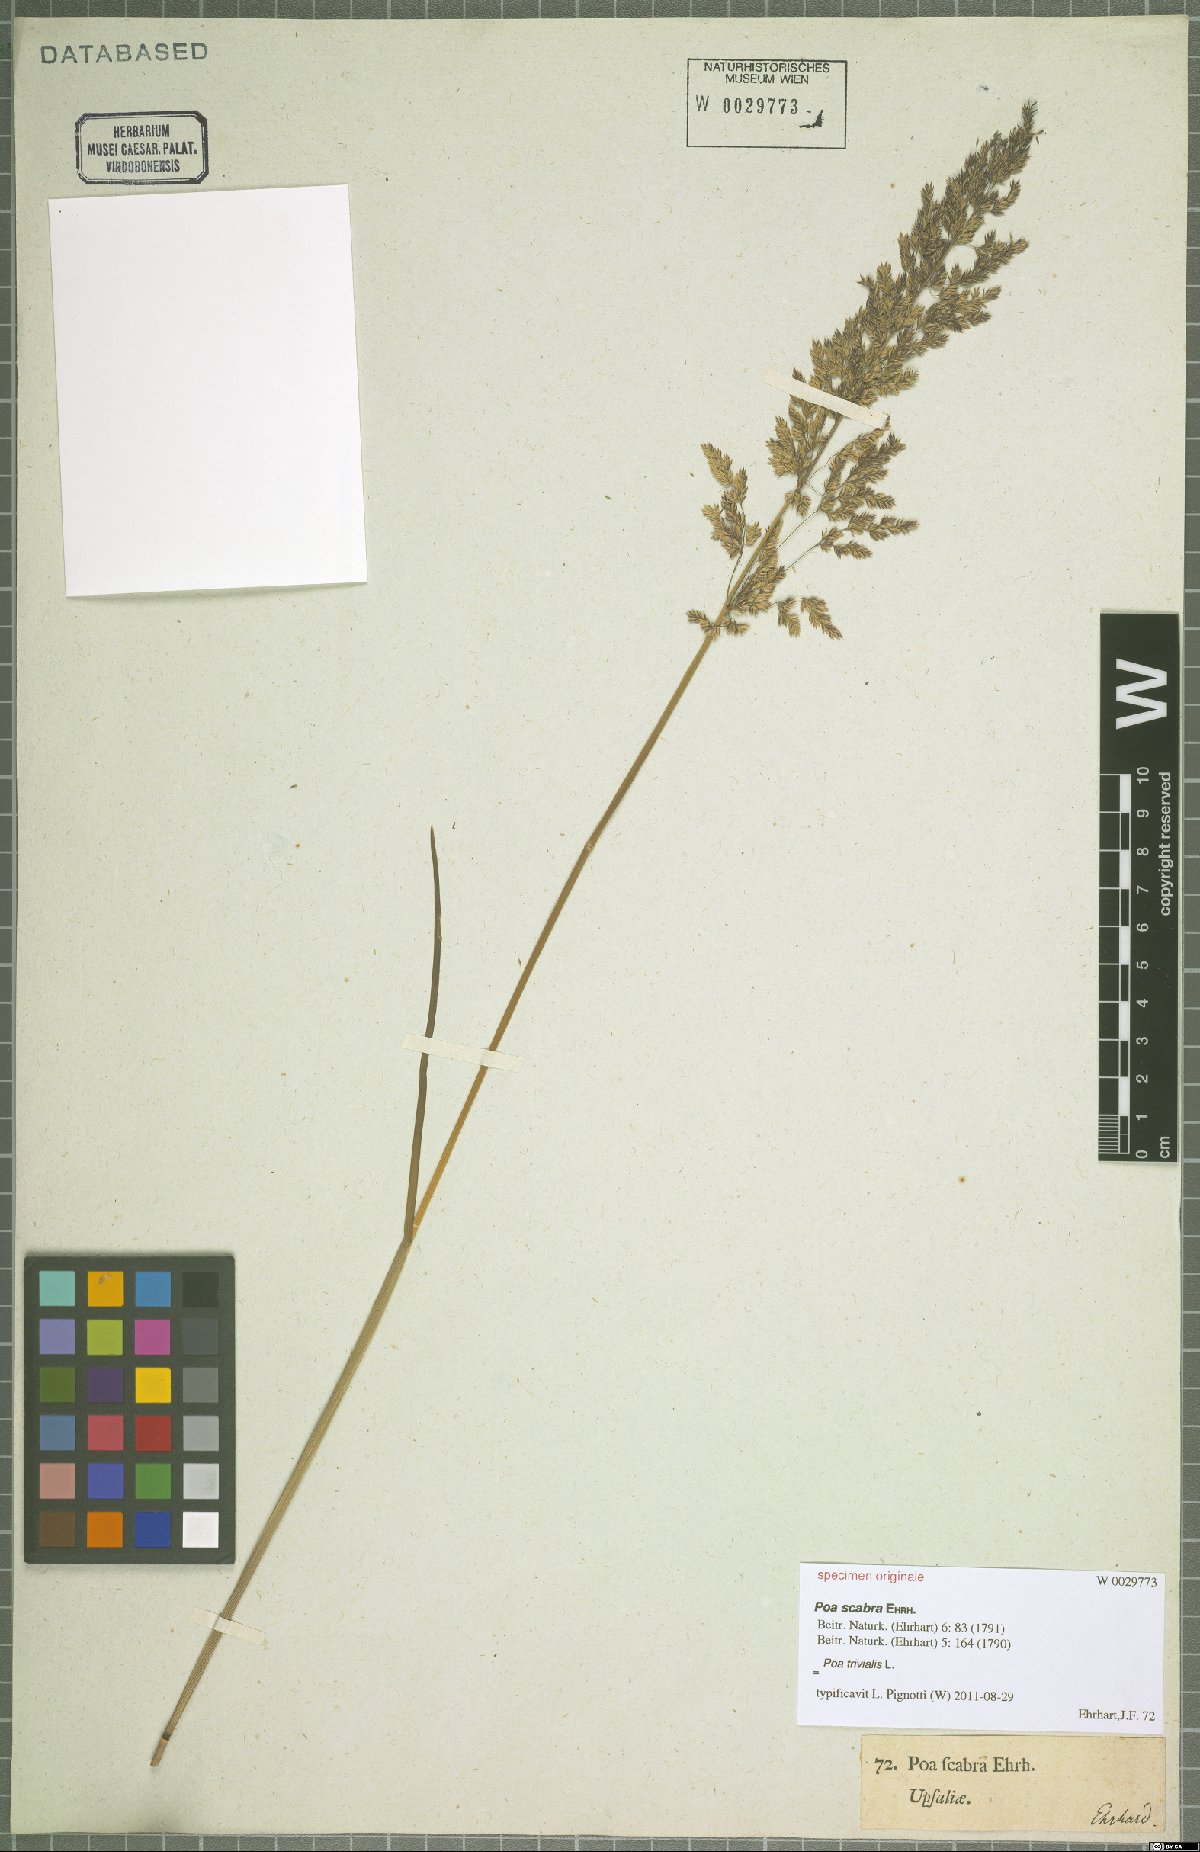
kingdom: Plantae
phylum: Tracheophyta
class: Liliopsida
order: Poales
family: Poaceae
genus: Poa
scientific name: Poa trivialis
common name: Rough bluegrass
